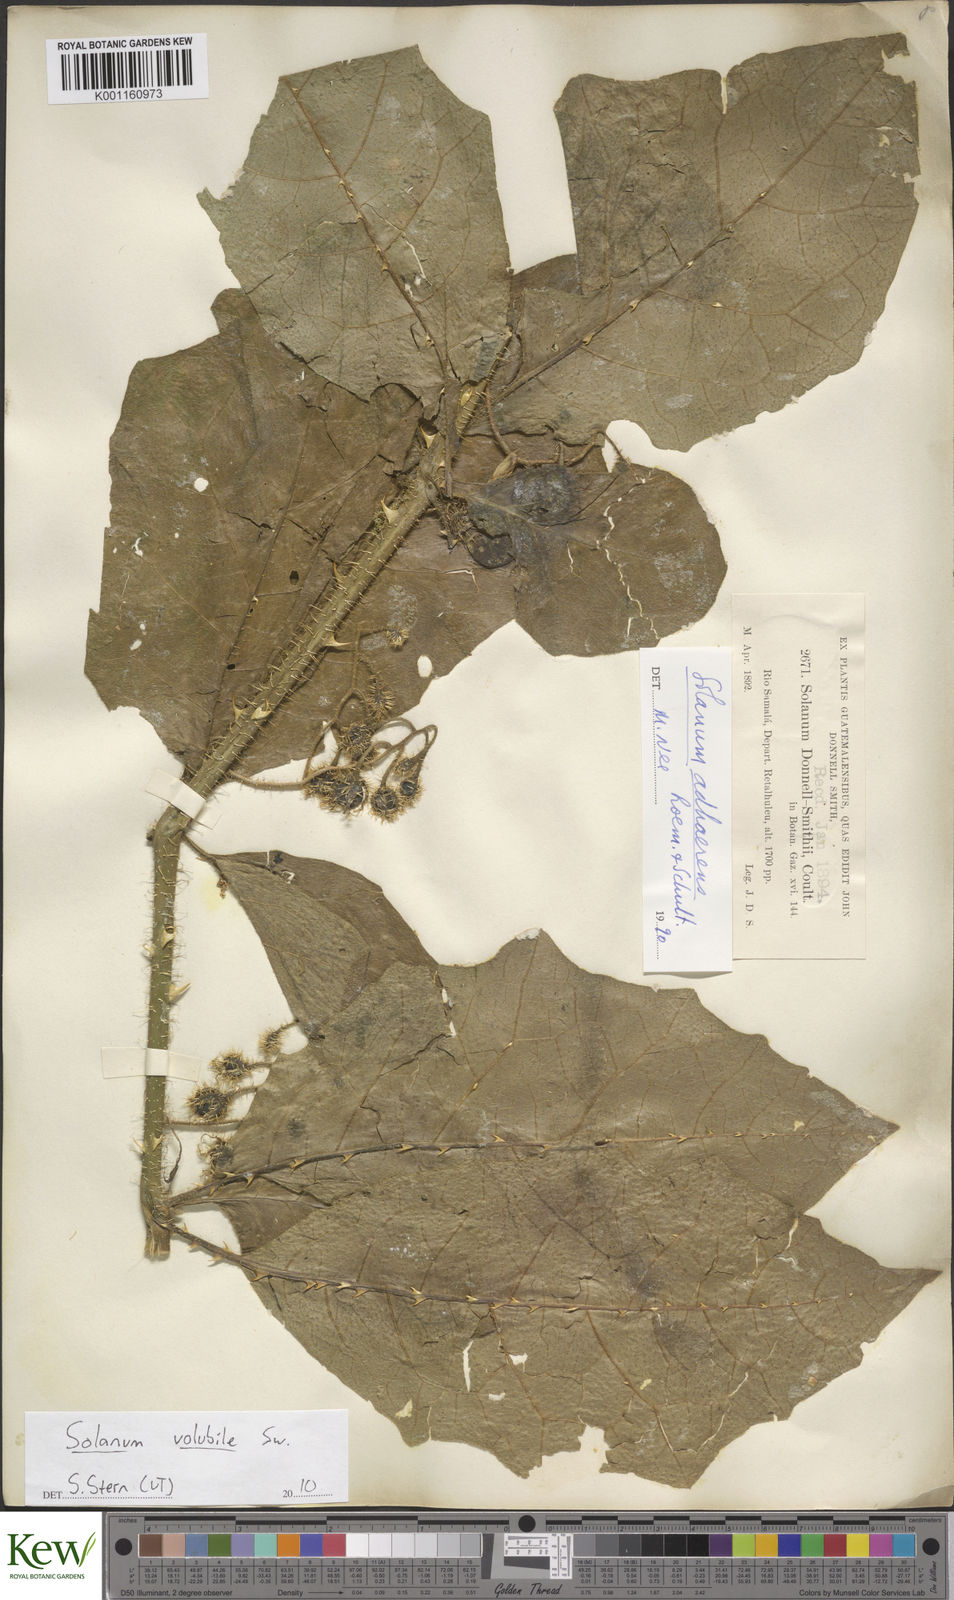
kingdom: Plantae
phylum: Tracheophyta
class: Magnoliopsida
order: Solanales
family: Solanaceae
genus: Solanum
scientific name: Solanum volubile
